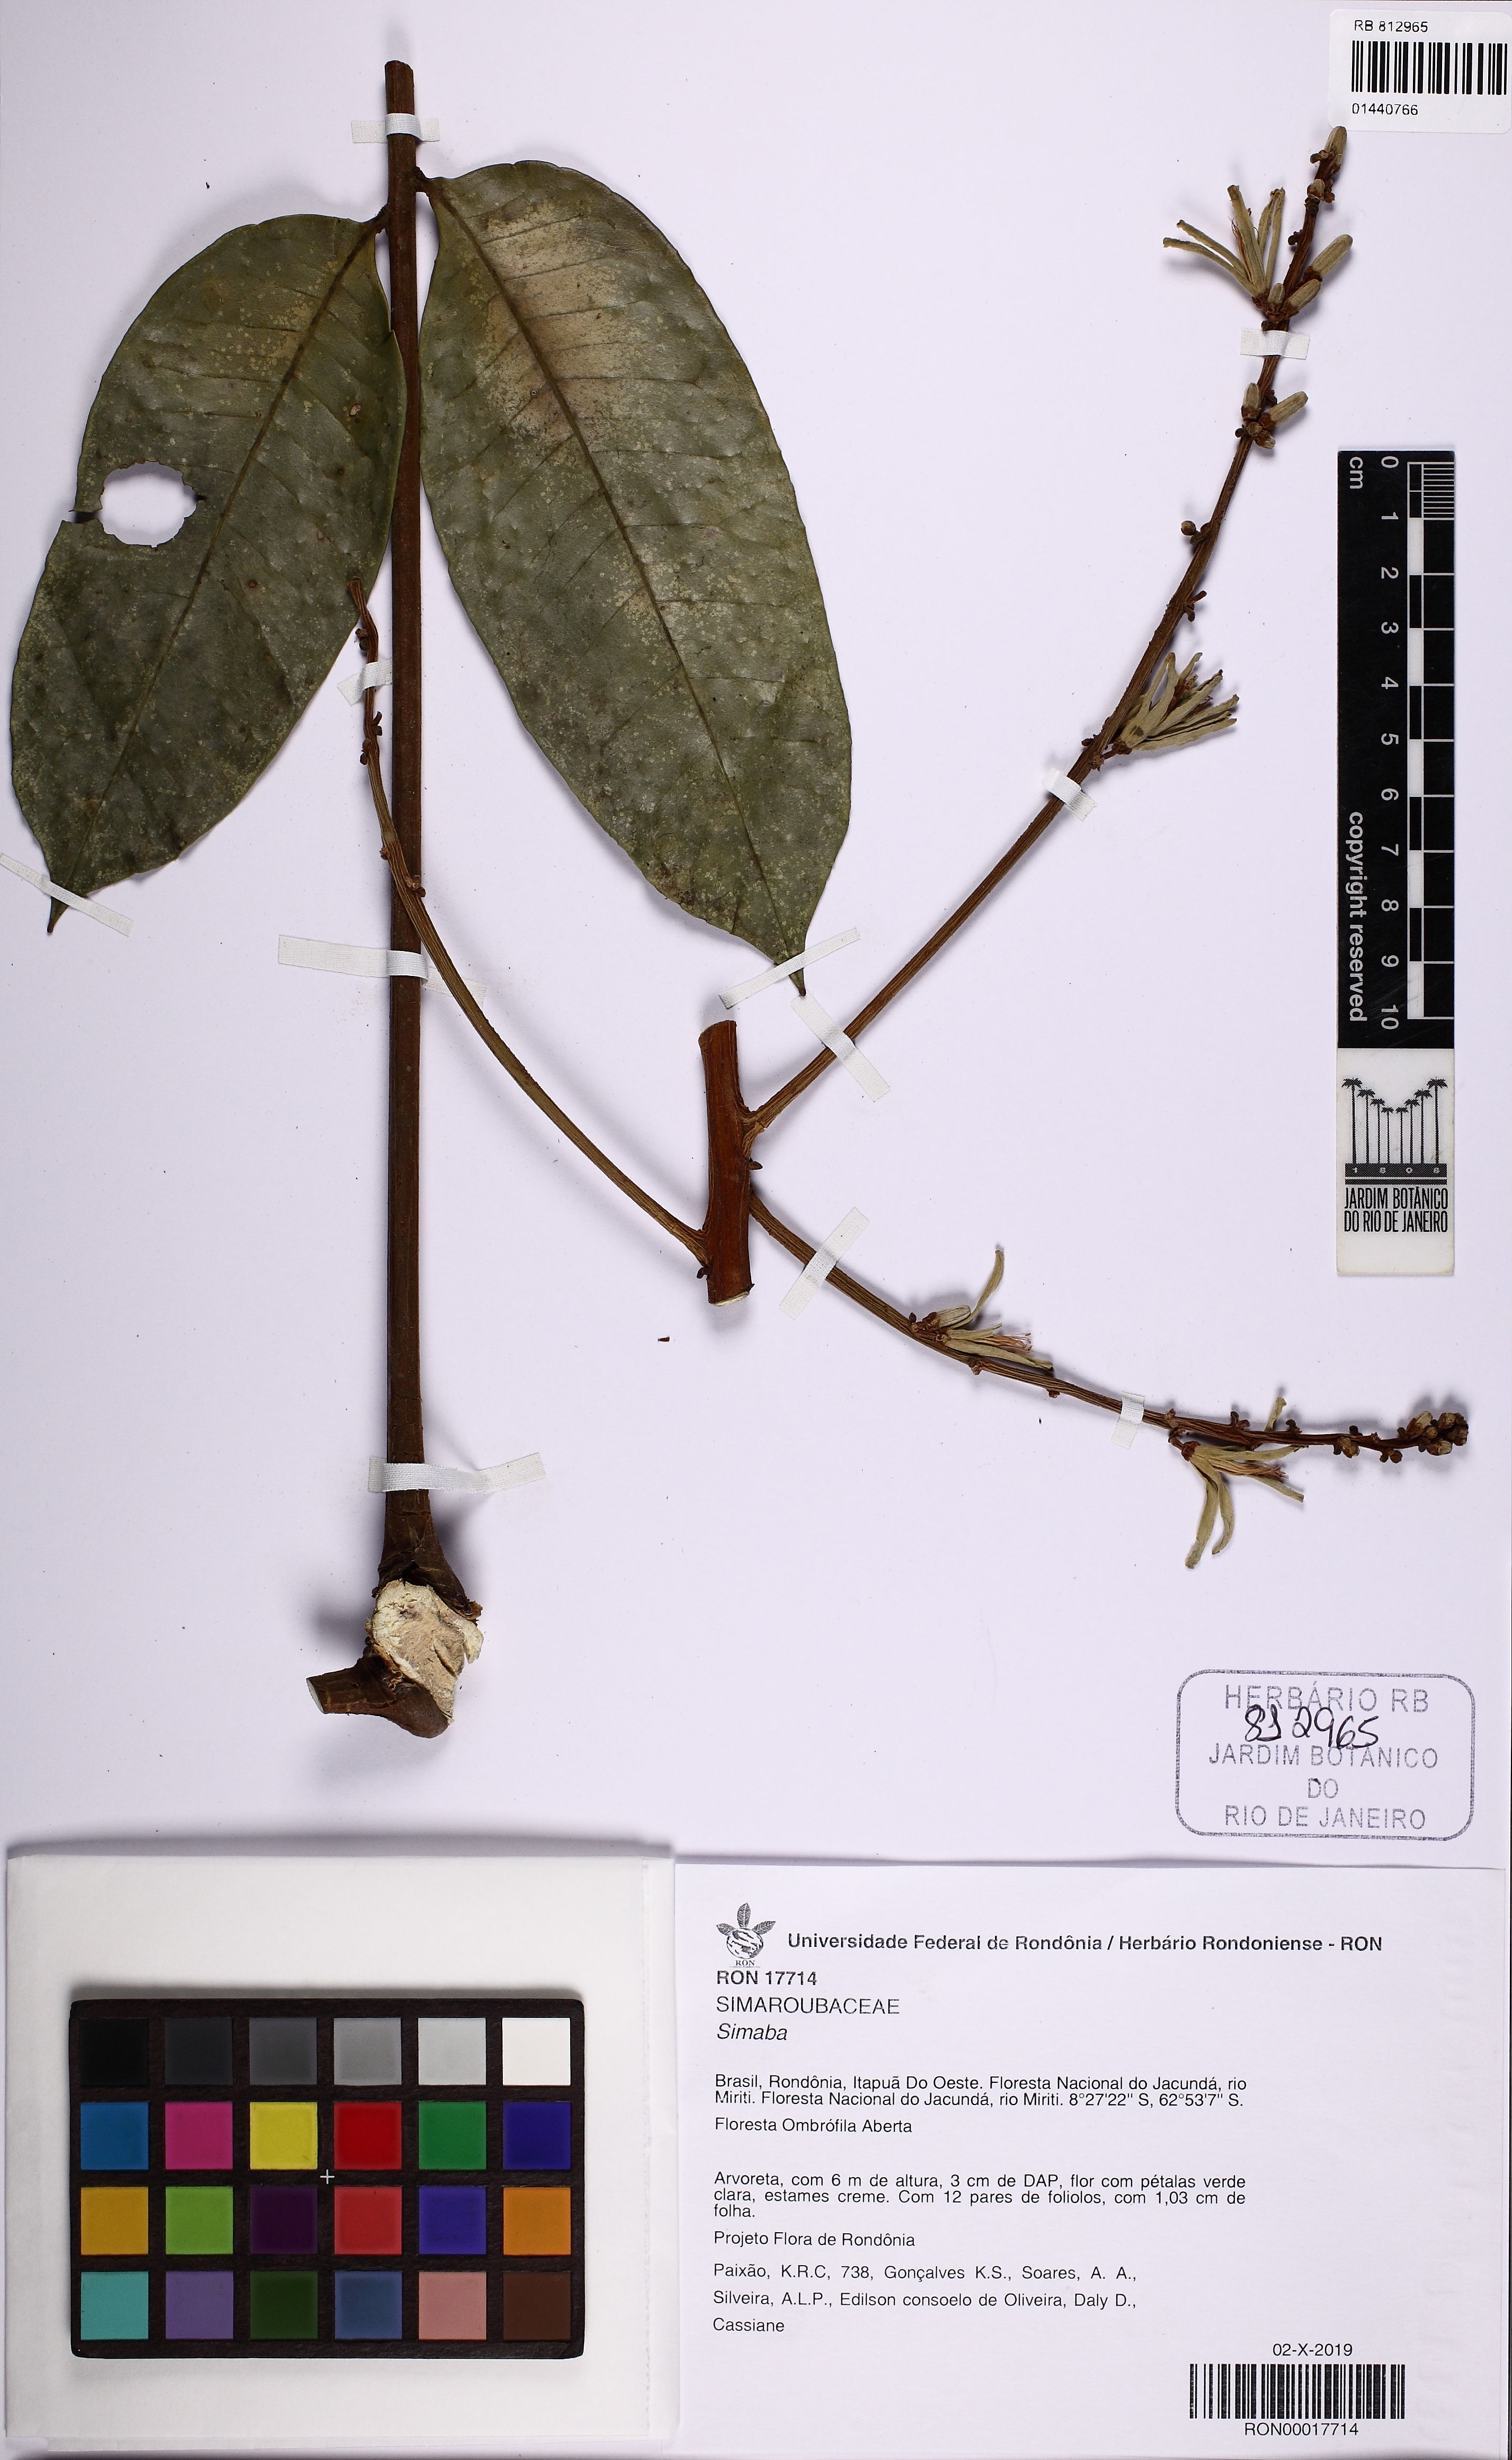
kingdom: Plantae
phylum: Tracheophyta
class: Magnoliopsida
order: Sapindales
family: Simaroubaceae
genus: Simaba
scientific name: Simaba
